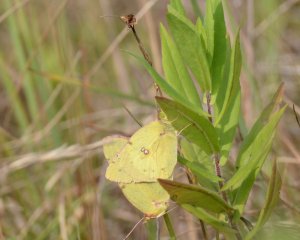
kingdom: Animalia
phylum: Arthropoda
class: Insecta
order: Lepidoptera
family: Pieridae
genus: Colias
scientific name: Colias philodice
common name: Clouded Sulphur
